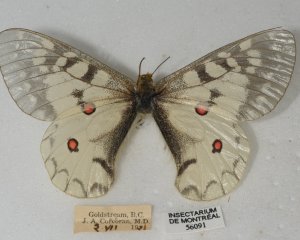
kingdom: Animalia
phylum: Arthropoda
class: Insecta
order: Lepidoptera
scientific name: Lepidoptera
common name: Butterflies
